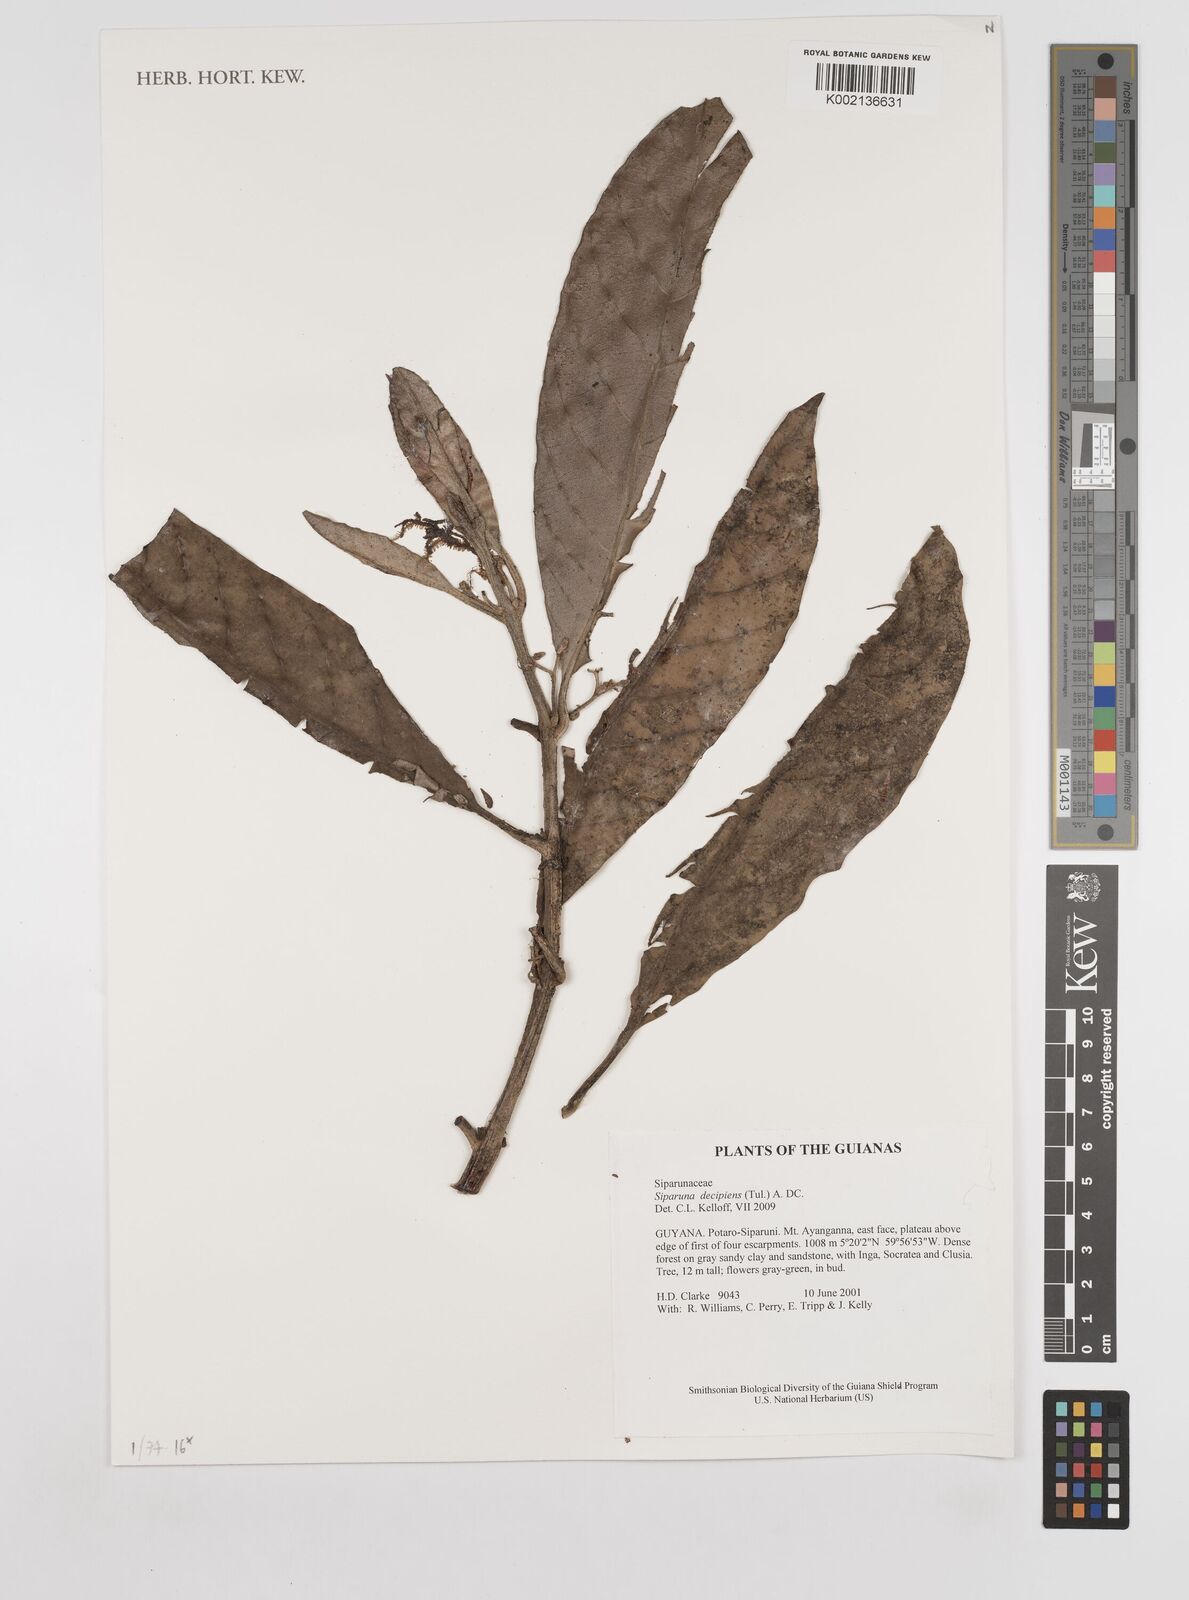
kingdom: Plantae
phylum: Tracheophyta
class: Magnoliopsida
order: Laurales
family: Siparunaceae
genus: Siparuna
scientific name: Siparuna decipiens
